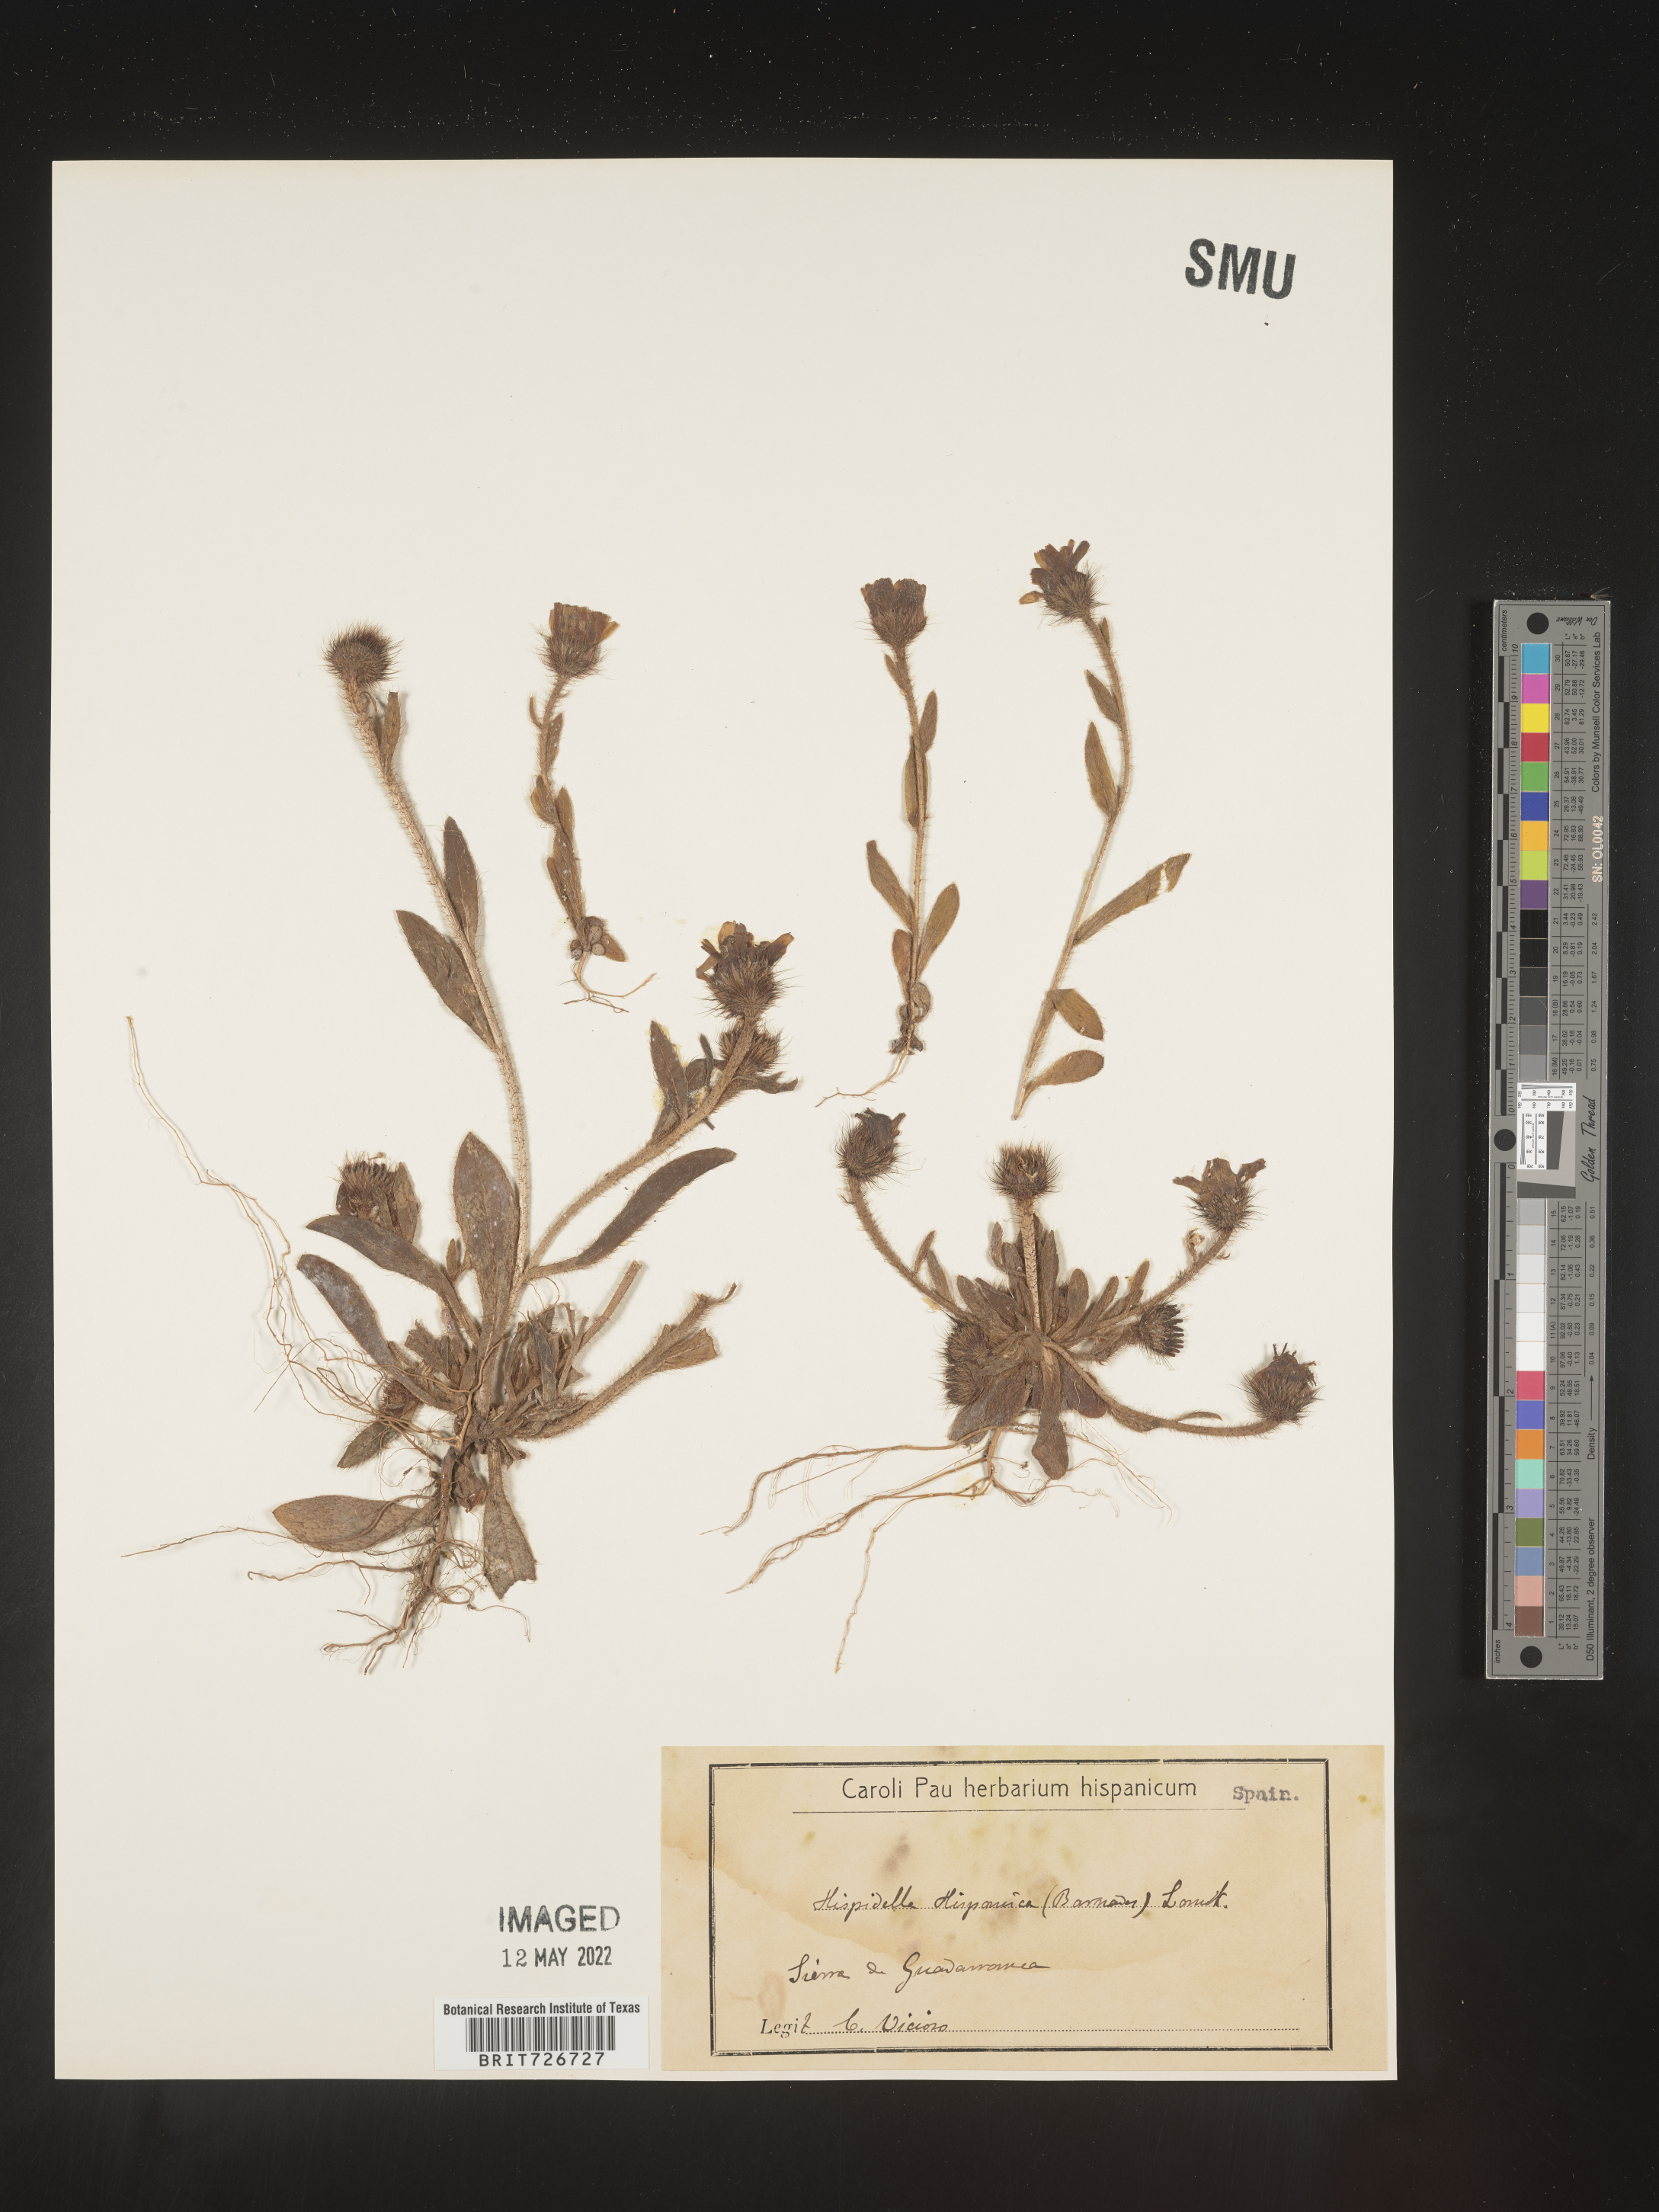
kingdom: Plantae
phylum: Tracheophyta
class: Magnoliopsida
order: Asterales
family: Asteraceae
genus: Hispidella
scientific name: Hispidella
